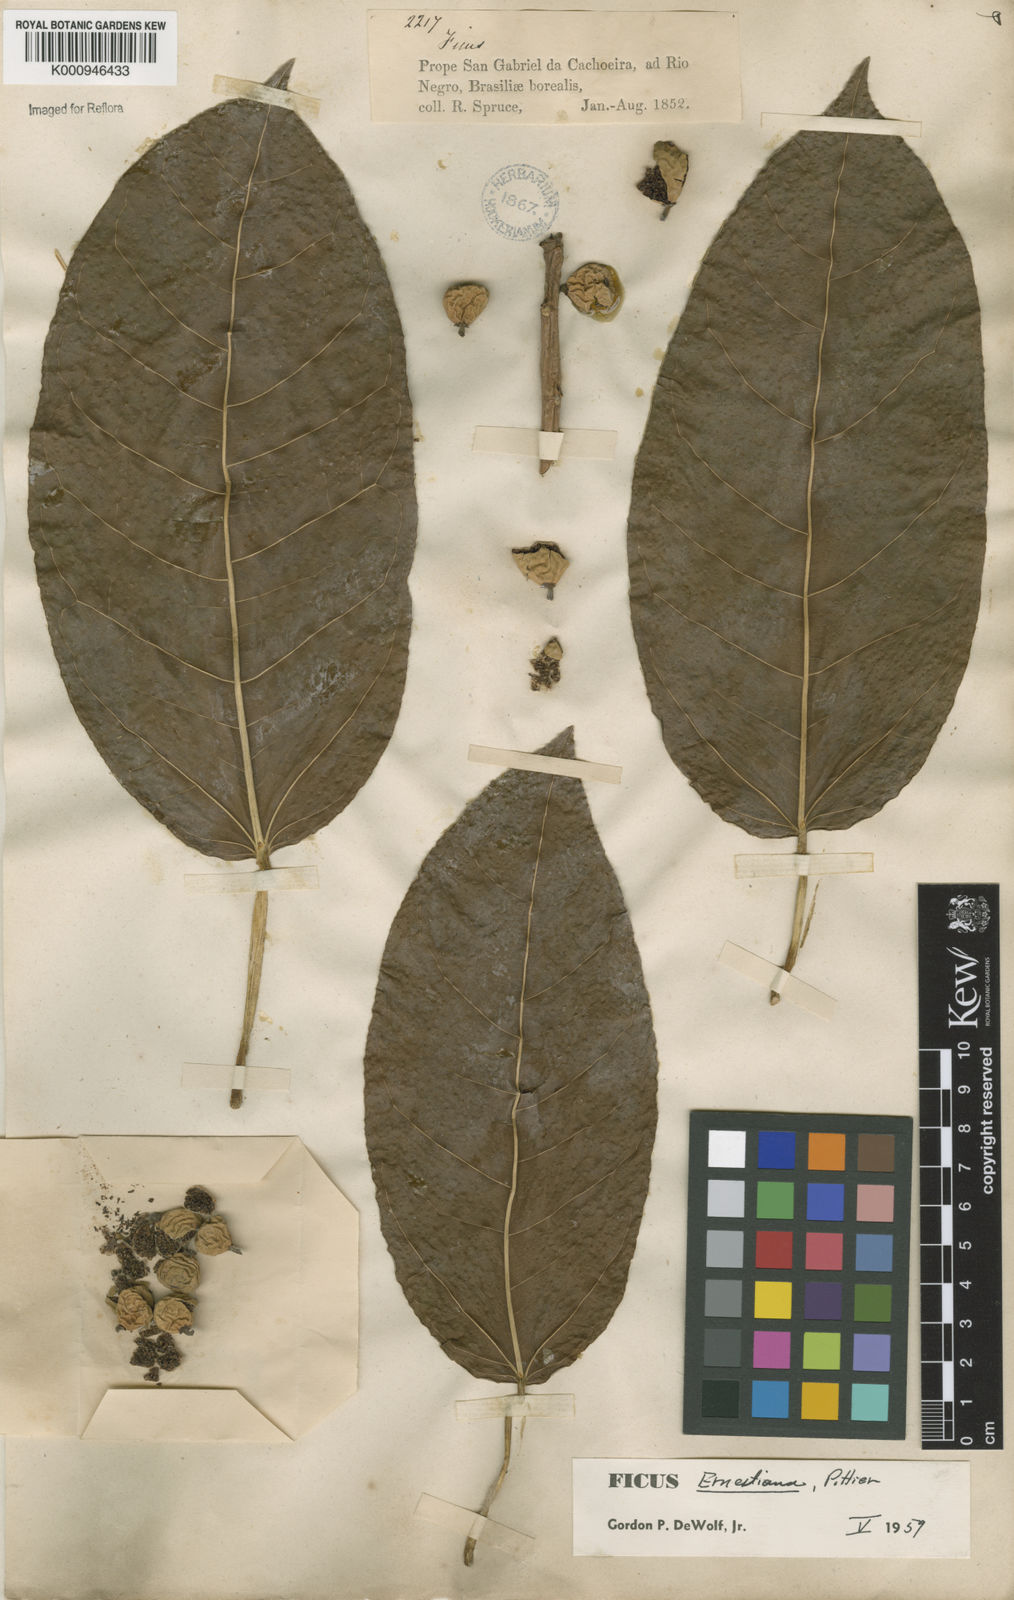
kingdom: Plantae
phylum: Tracheophyta
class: Magnoliopsida
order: Rosales
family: Moraceae
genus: Ficus
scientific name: Ficus
